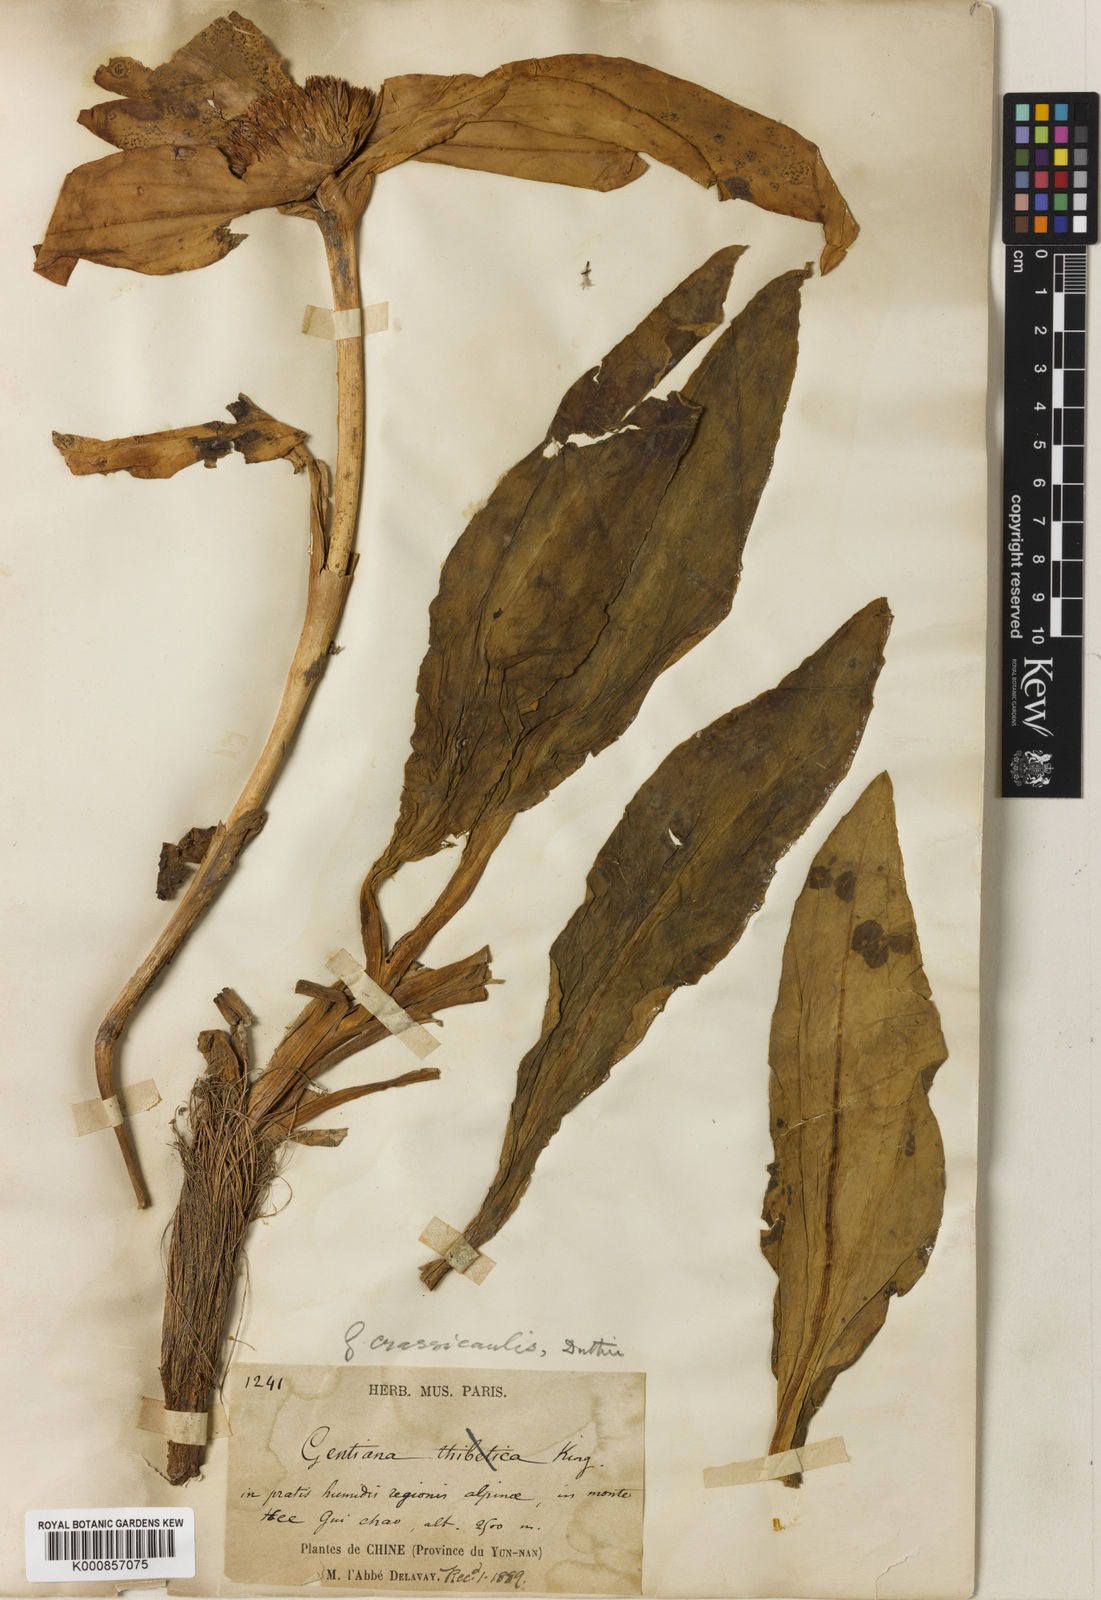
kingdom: Plantae
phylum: Tracheophyta
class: Magnoliopsida
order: Gentianales
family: Gentianaceae
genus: Gentiana
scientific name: Gentiana
